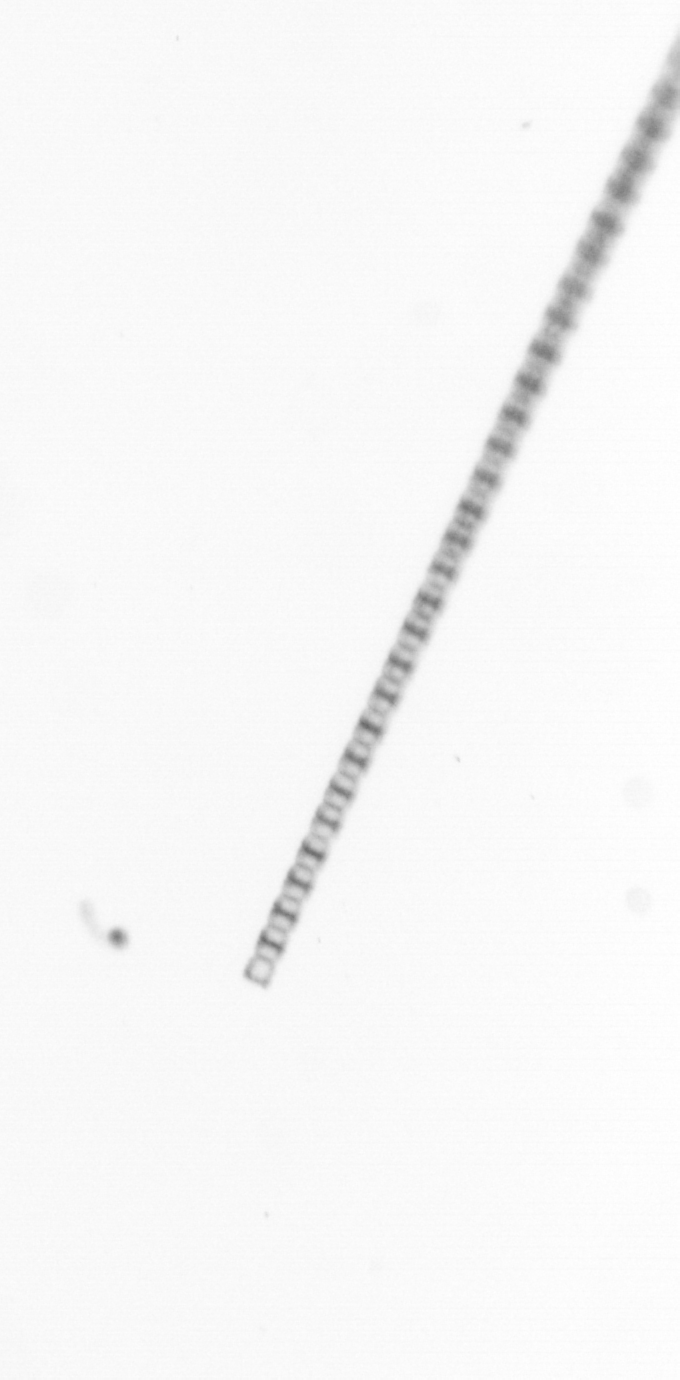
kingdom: Chromista
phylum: Ochrophyta
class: Bacillariophyceae
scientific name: Bacillariophyceae
